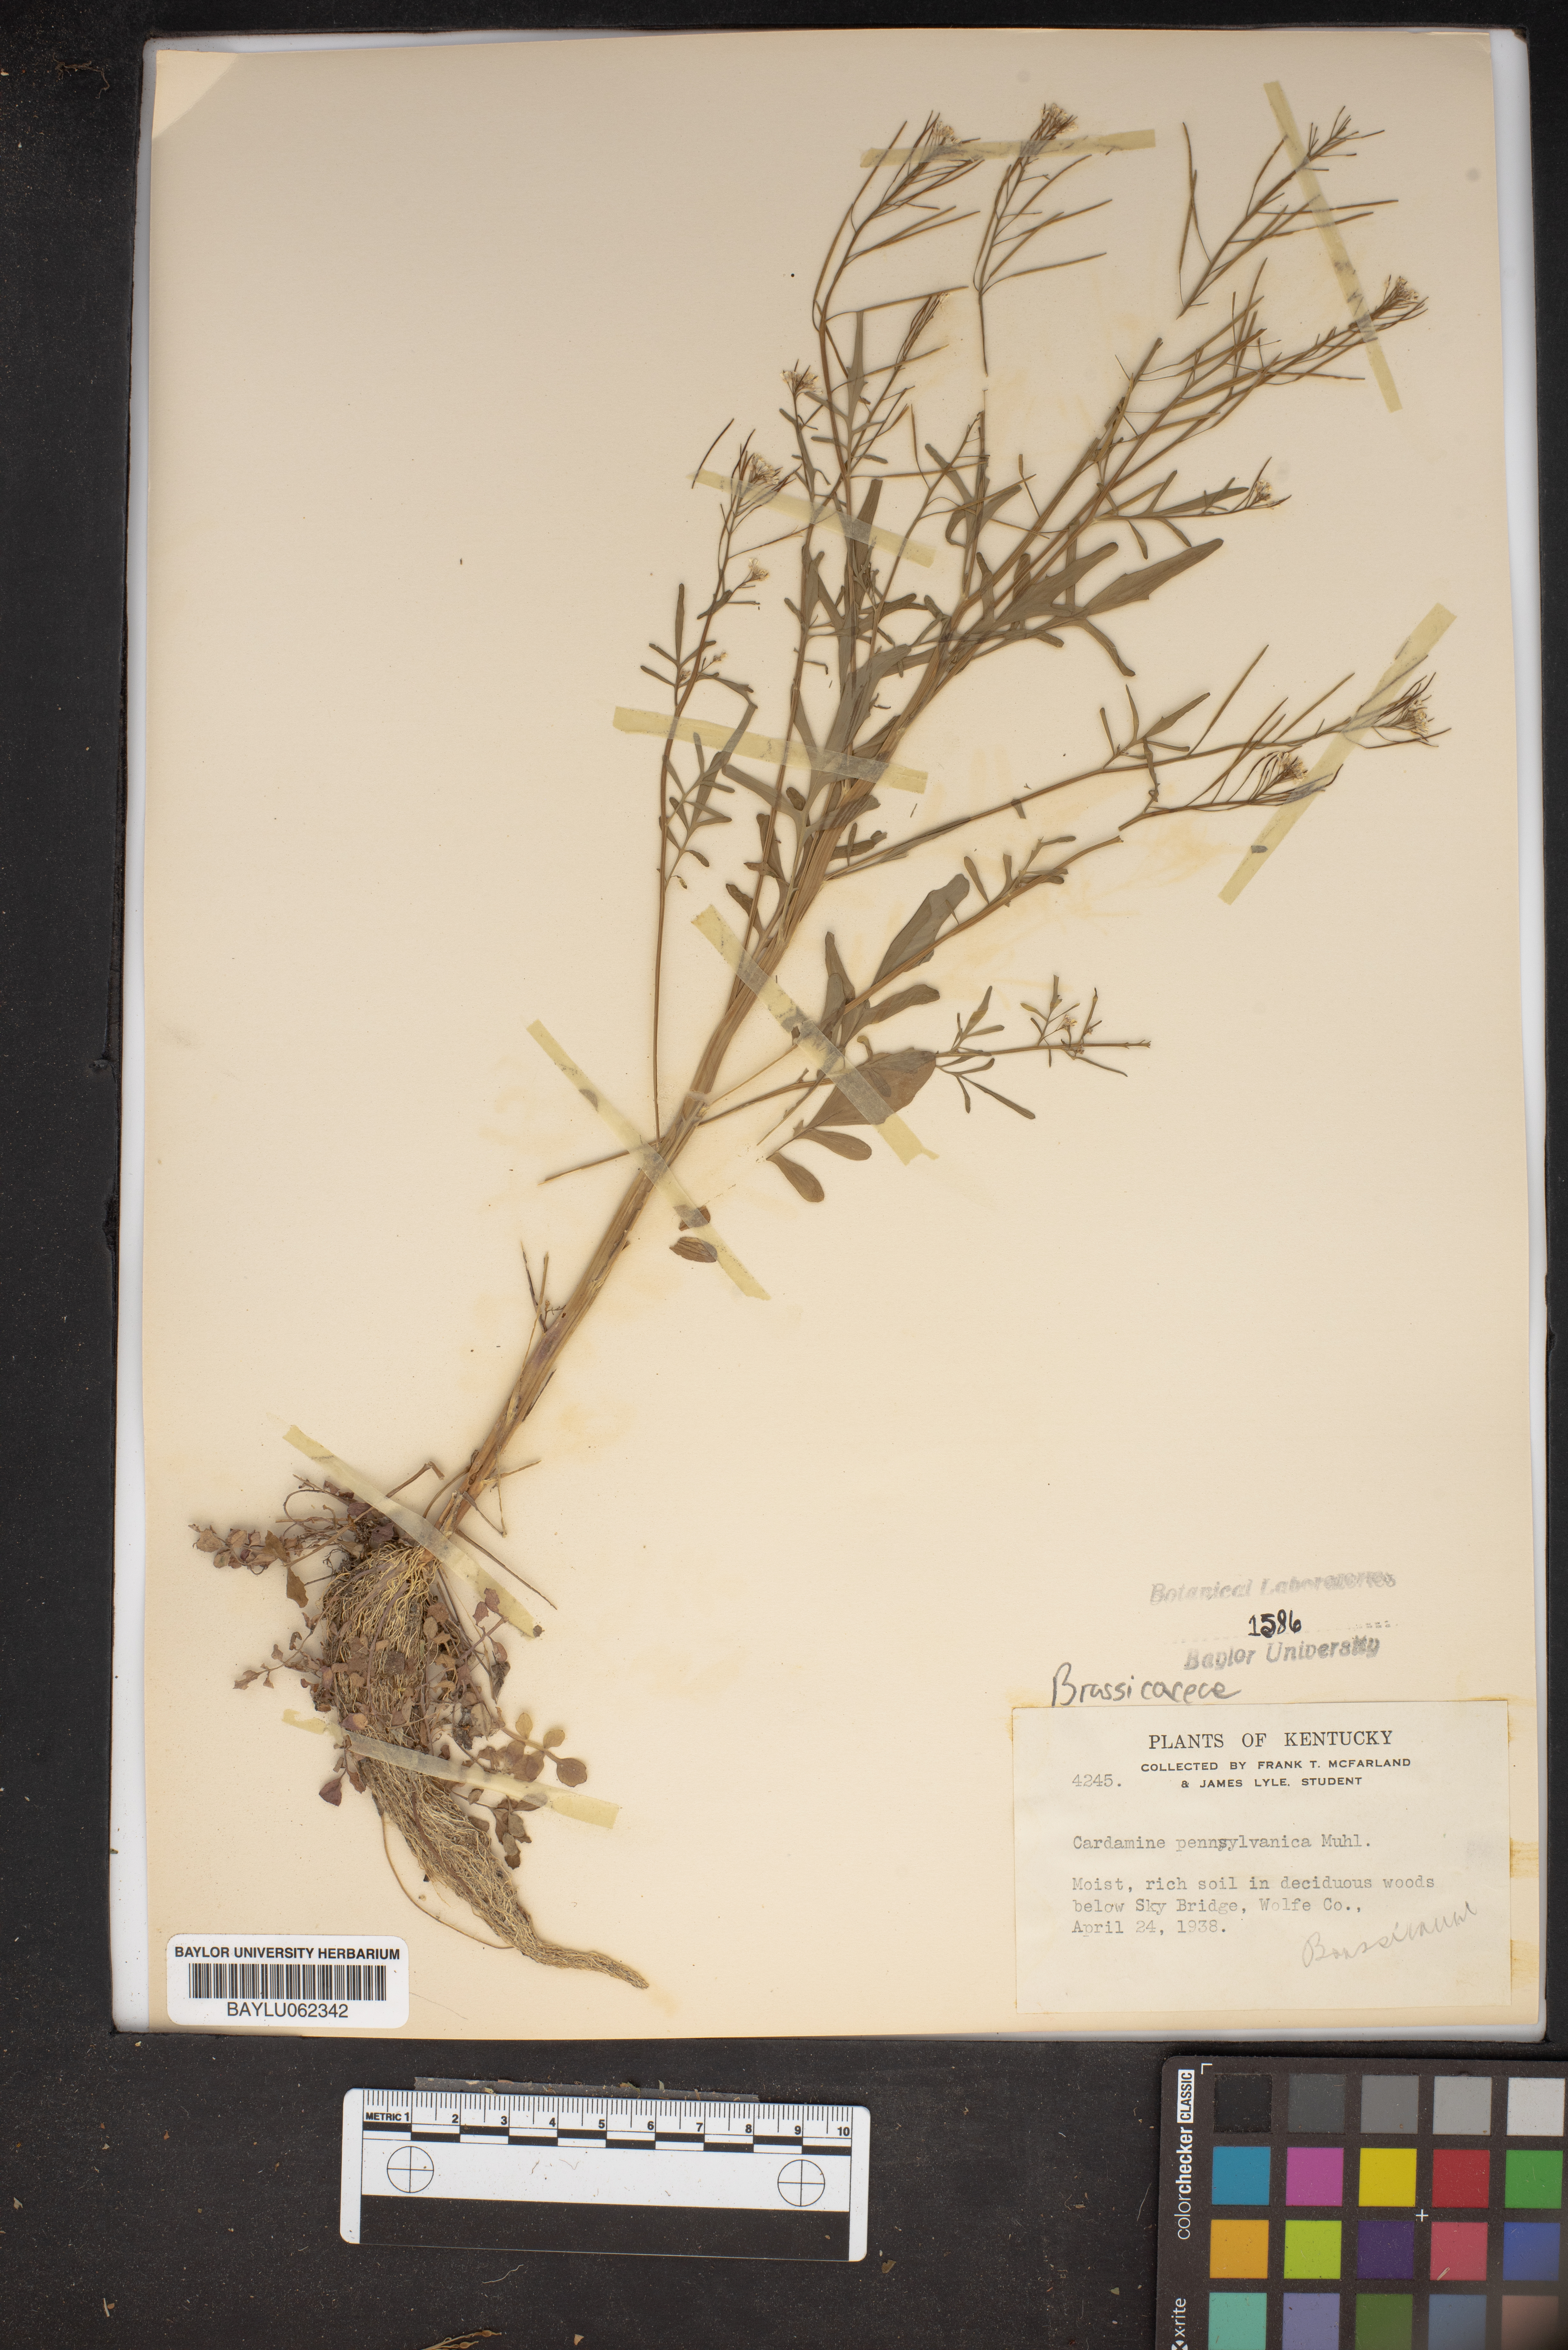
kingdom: Plantae
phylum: Tracheophyta
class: Magnoliopsida
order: Brassicales
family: Brassicaceae
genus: Cardamine
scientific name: Cardamine pensylvanica
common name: Pennsylvania bittercress
